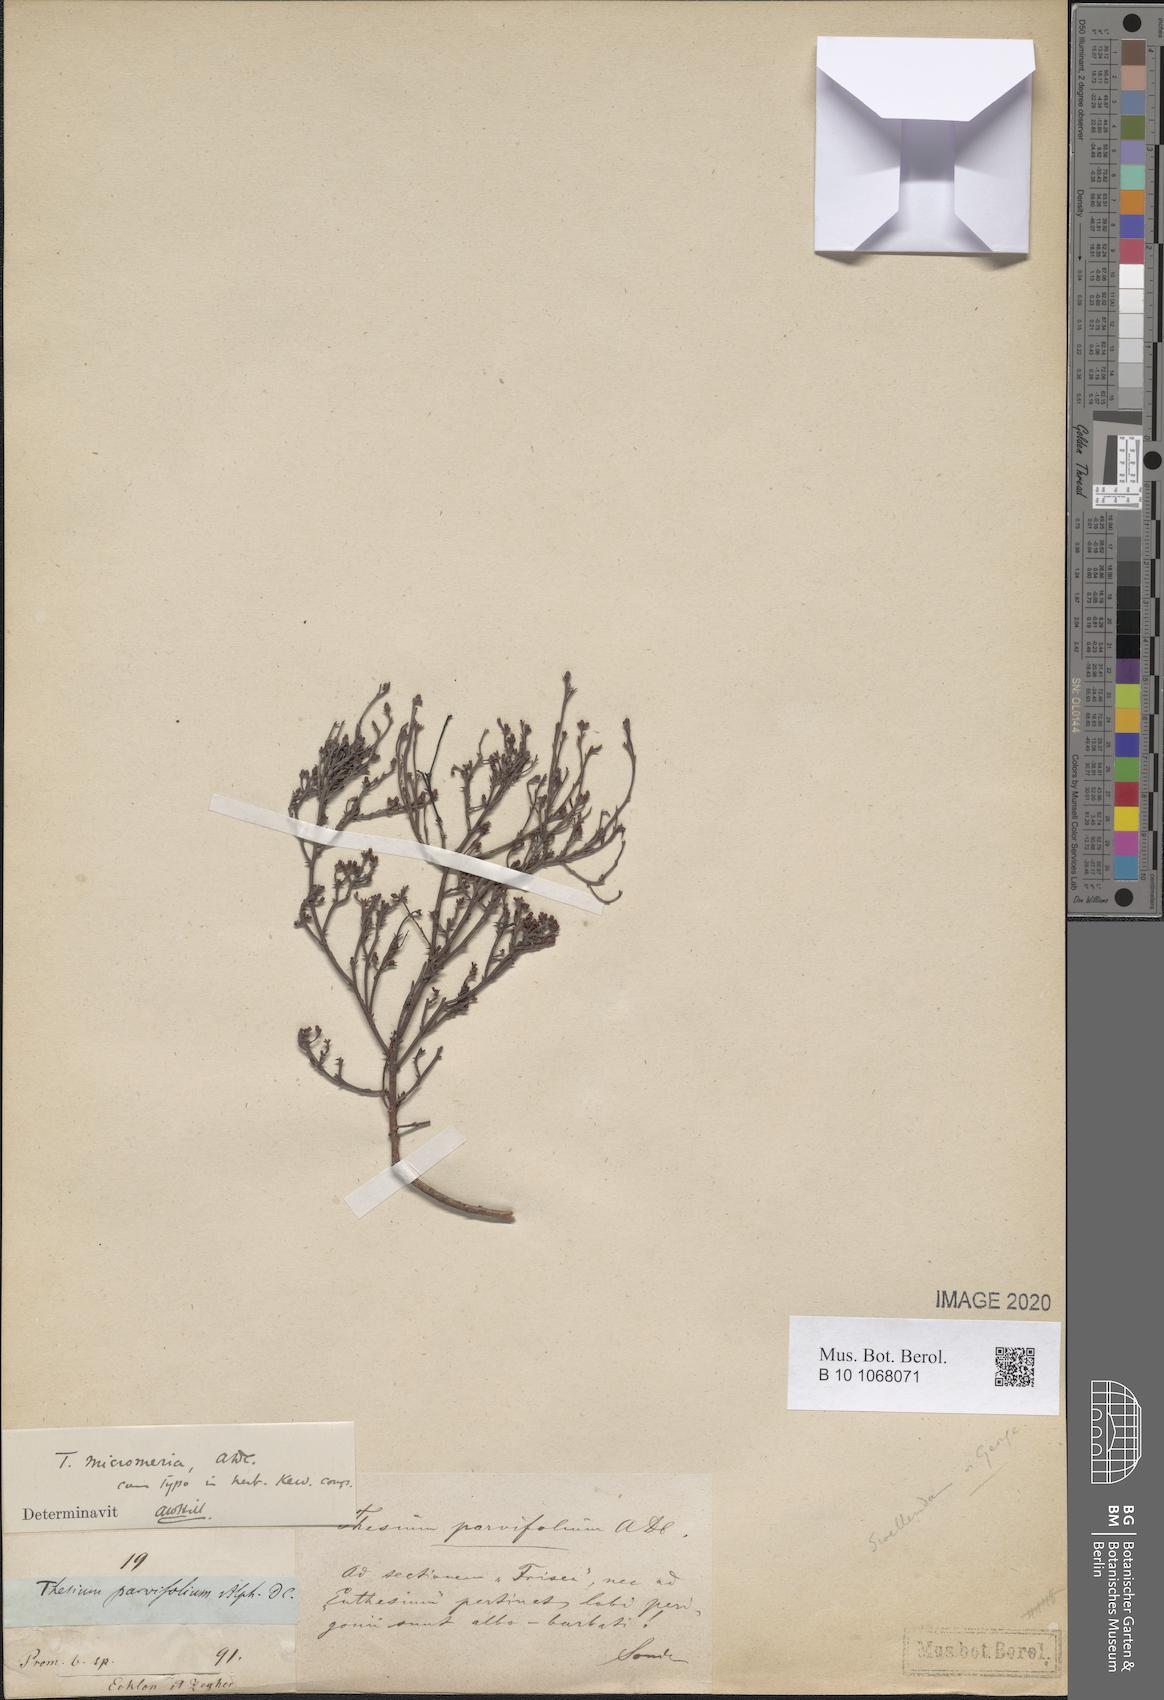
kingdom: Plantae
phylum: Tracheophyta
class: Magnoliopsida
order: Santalales
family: Thesiaceae
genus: Thesium
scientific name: Thesium micromeria
